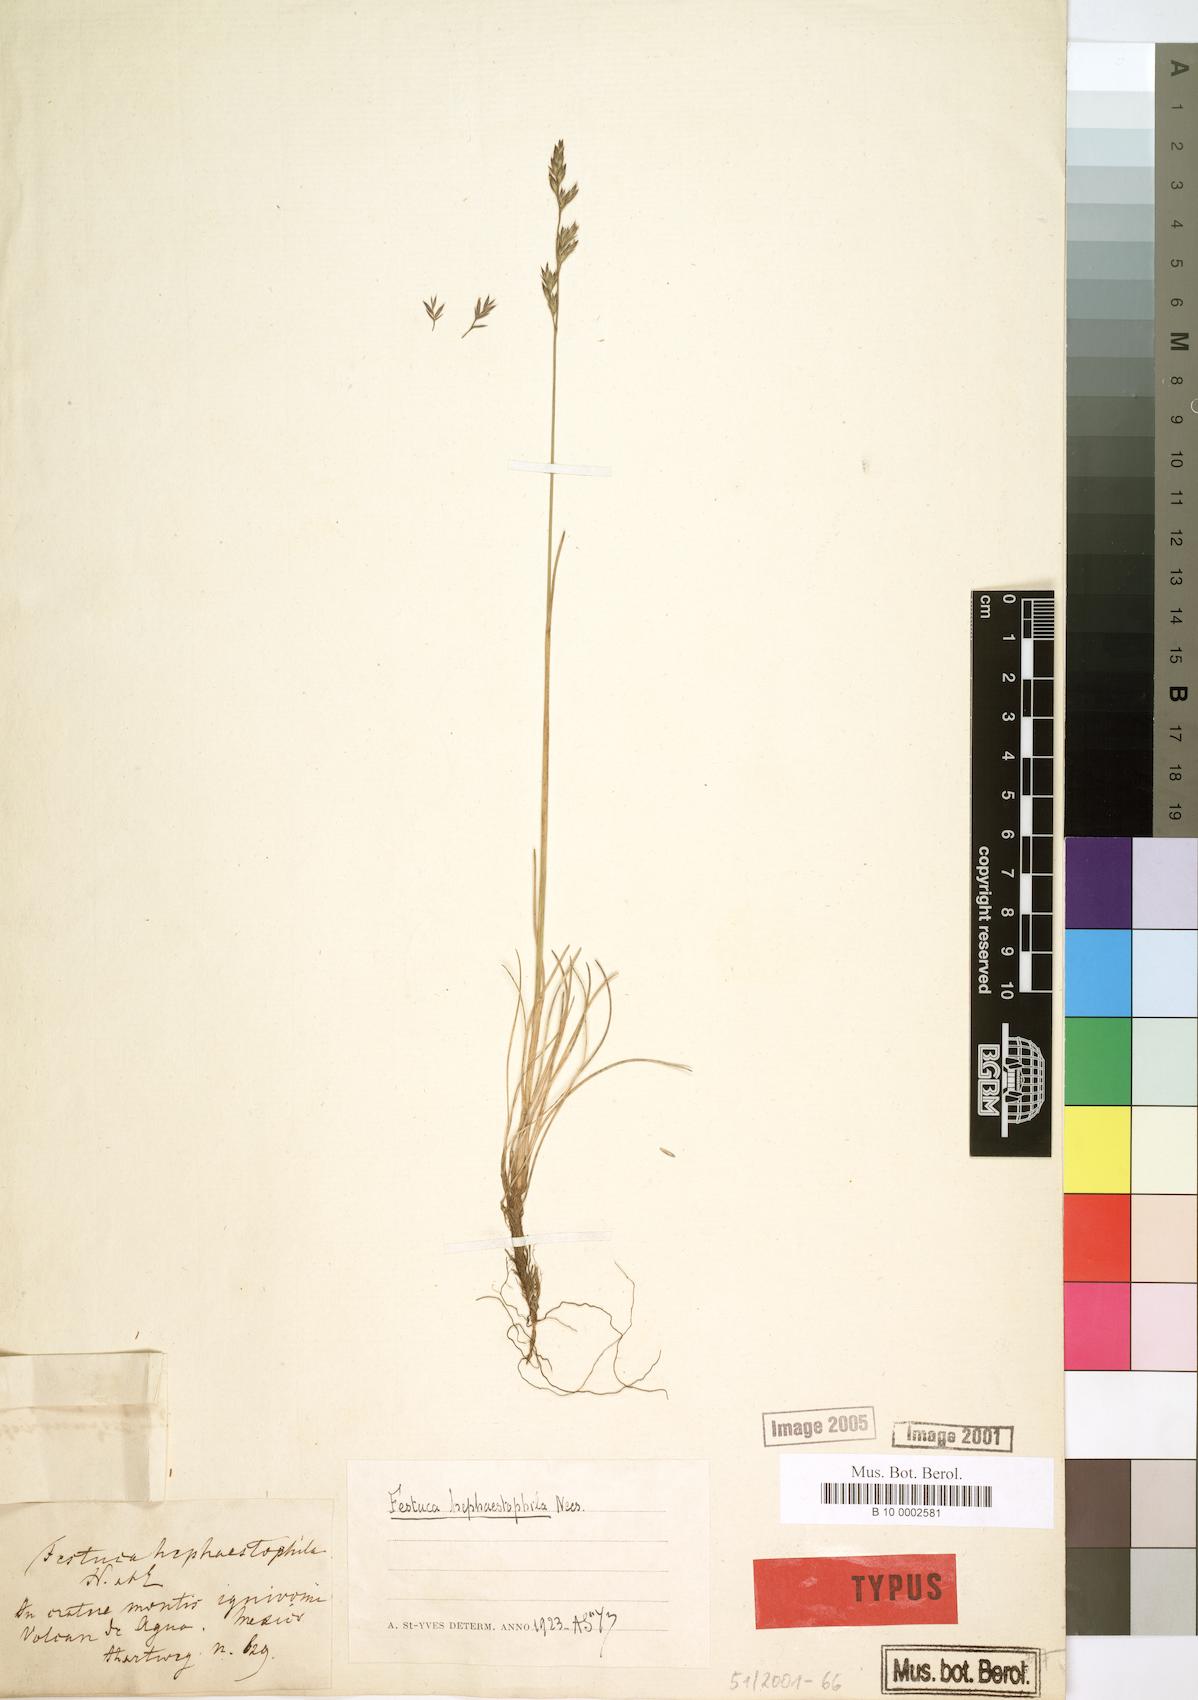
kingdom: Plantae
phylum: Tracheophyta
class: Liliopsida
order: Poales
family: Poaceae
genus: Festuca
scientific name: Festuca hephaestophila
